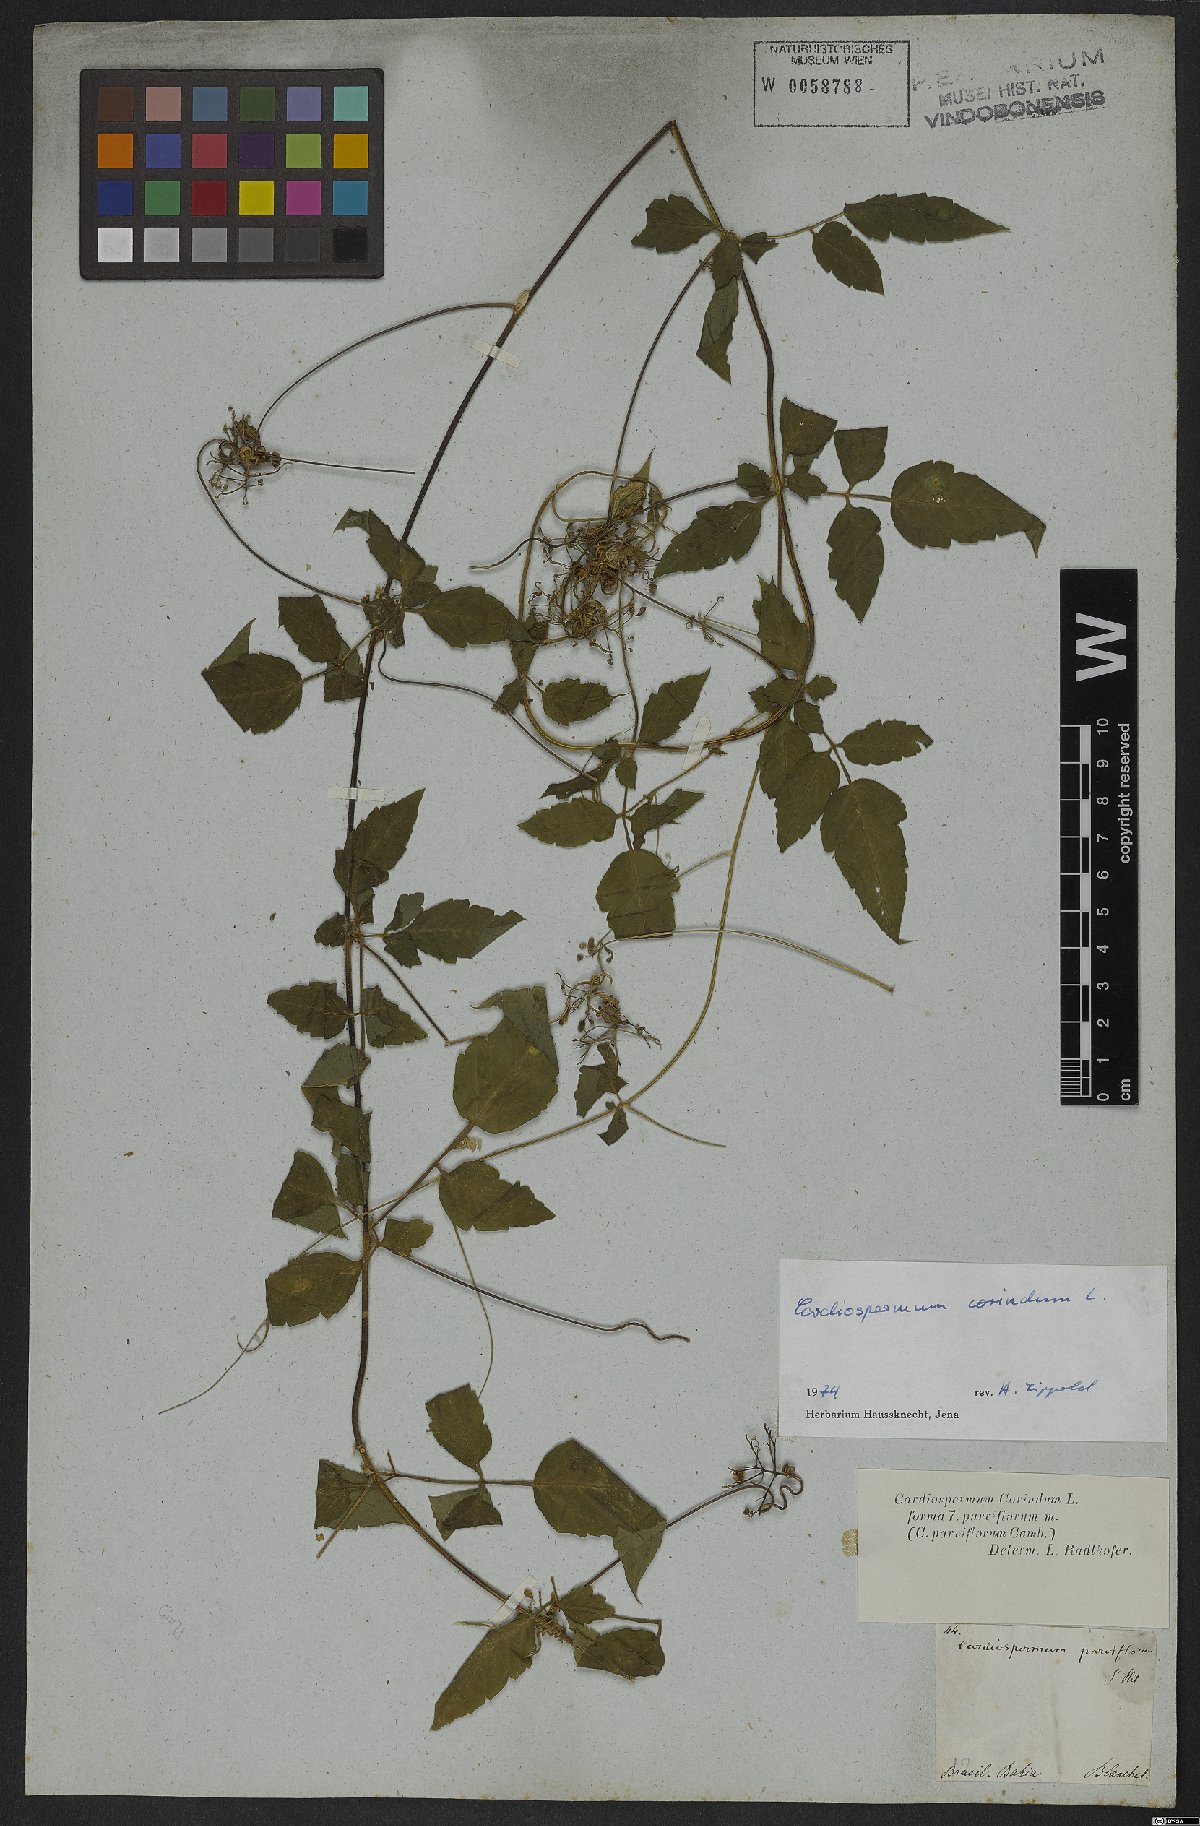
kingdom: Plantae
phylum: Tracheophyta
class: Magnoliopsida
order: Sapindales
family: Sapindaceae
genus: Cardiospermum
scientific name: Cardiospermum corindum
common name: Faux persil
